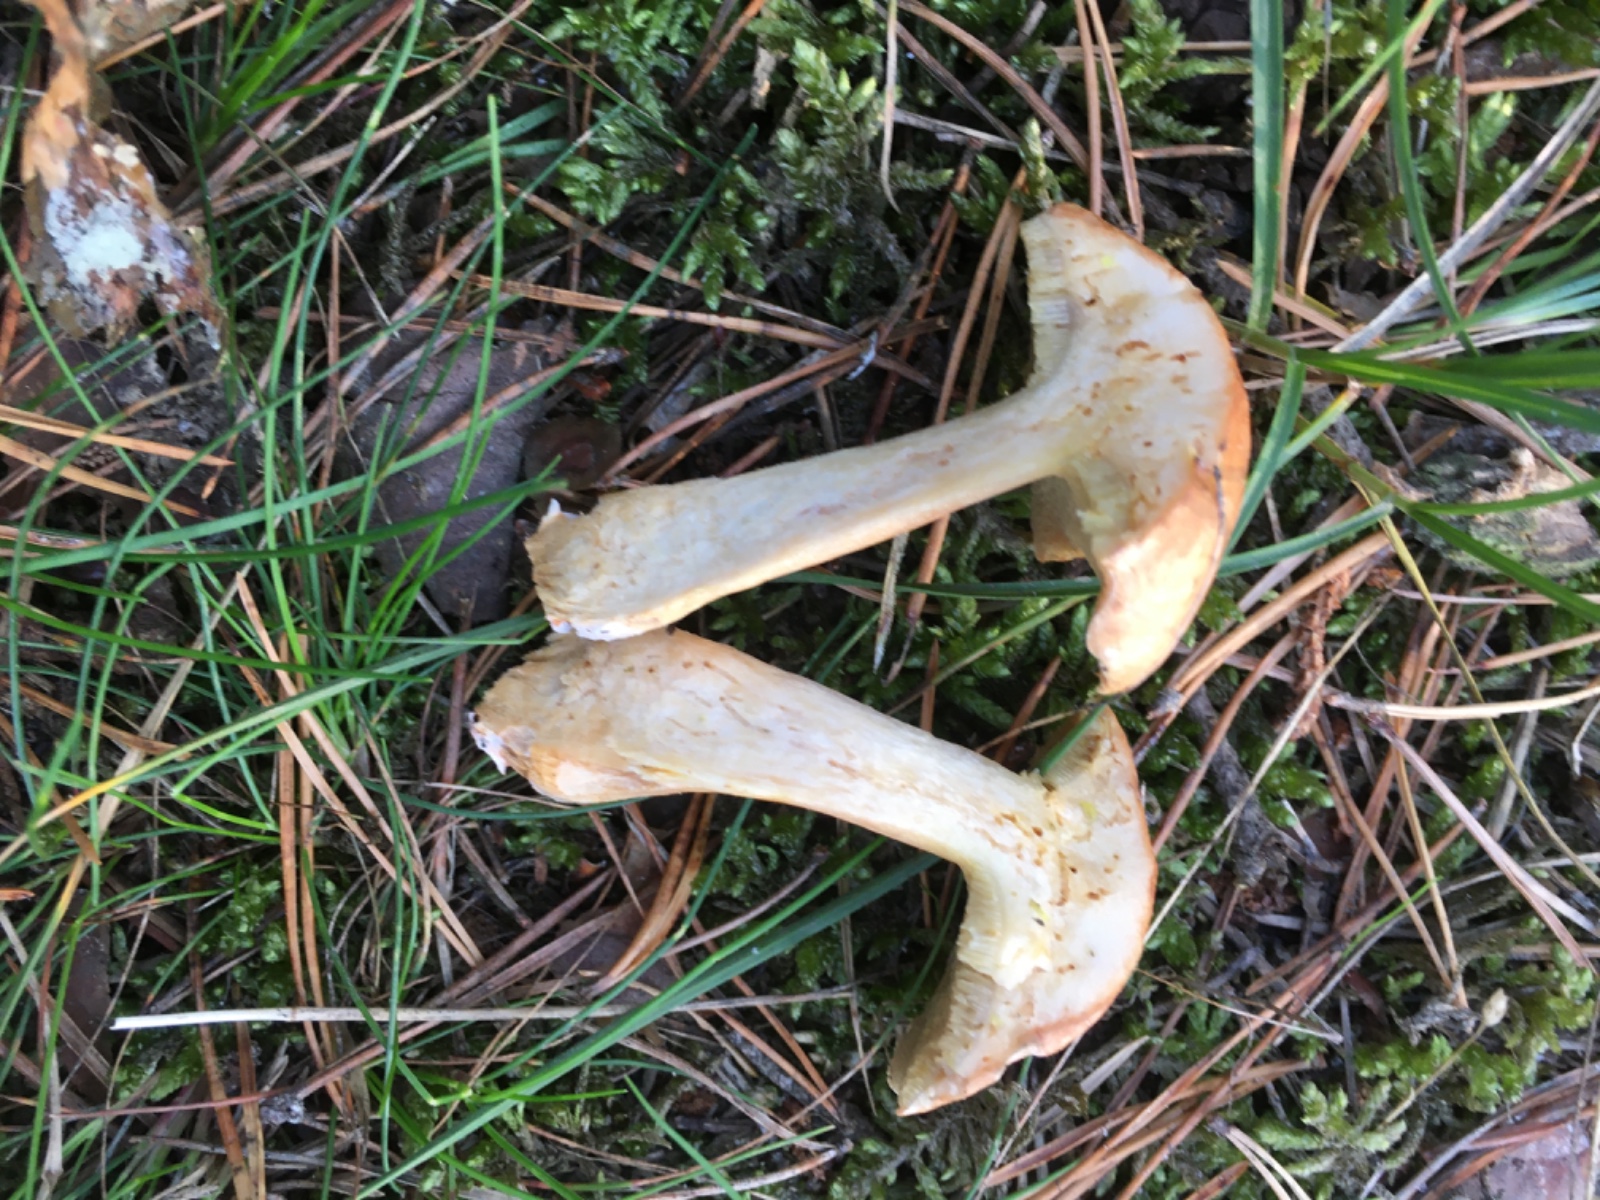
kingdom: Fungi
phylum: Basidiomycota
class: Agaricomycetes
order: Boletales
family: Suillaceae
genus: Suillus
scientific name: Suillus bovinus
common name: grovporet slimrørhat
